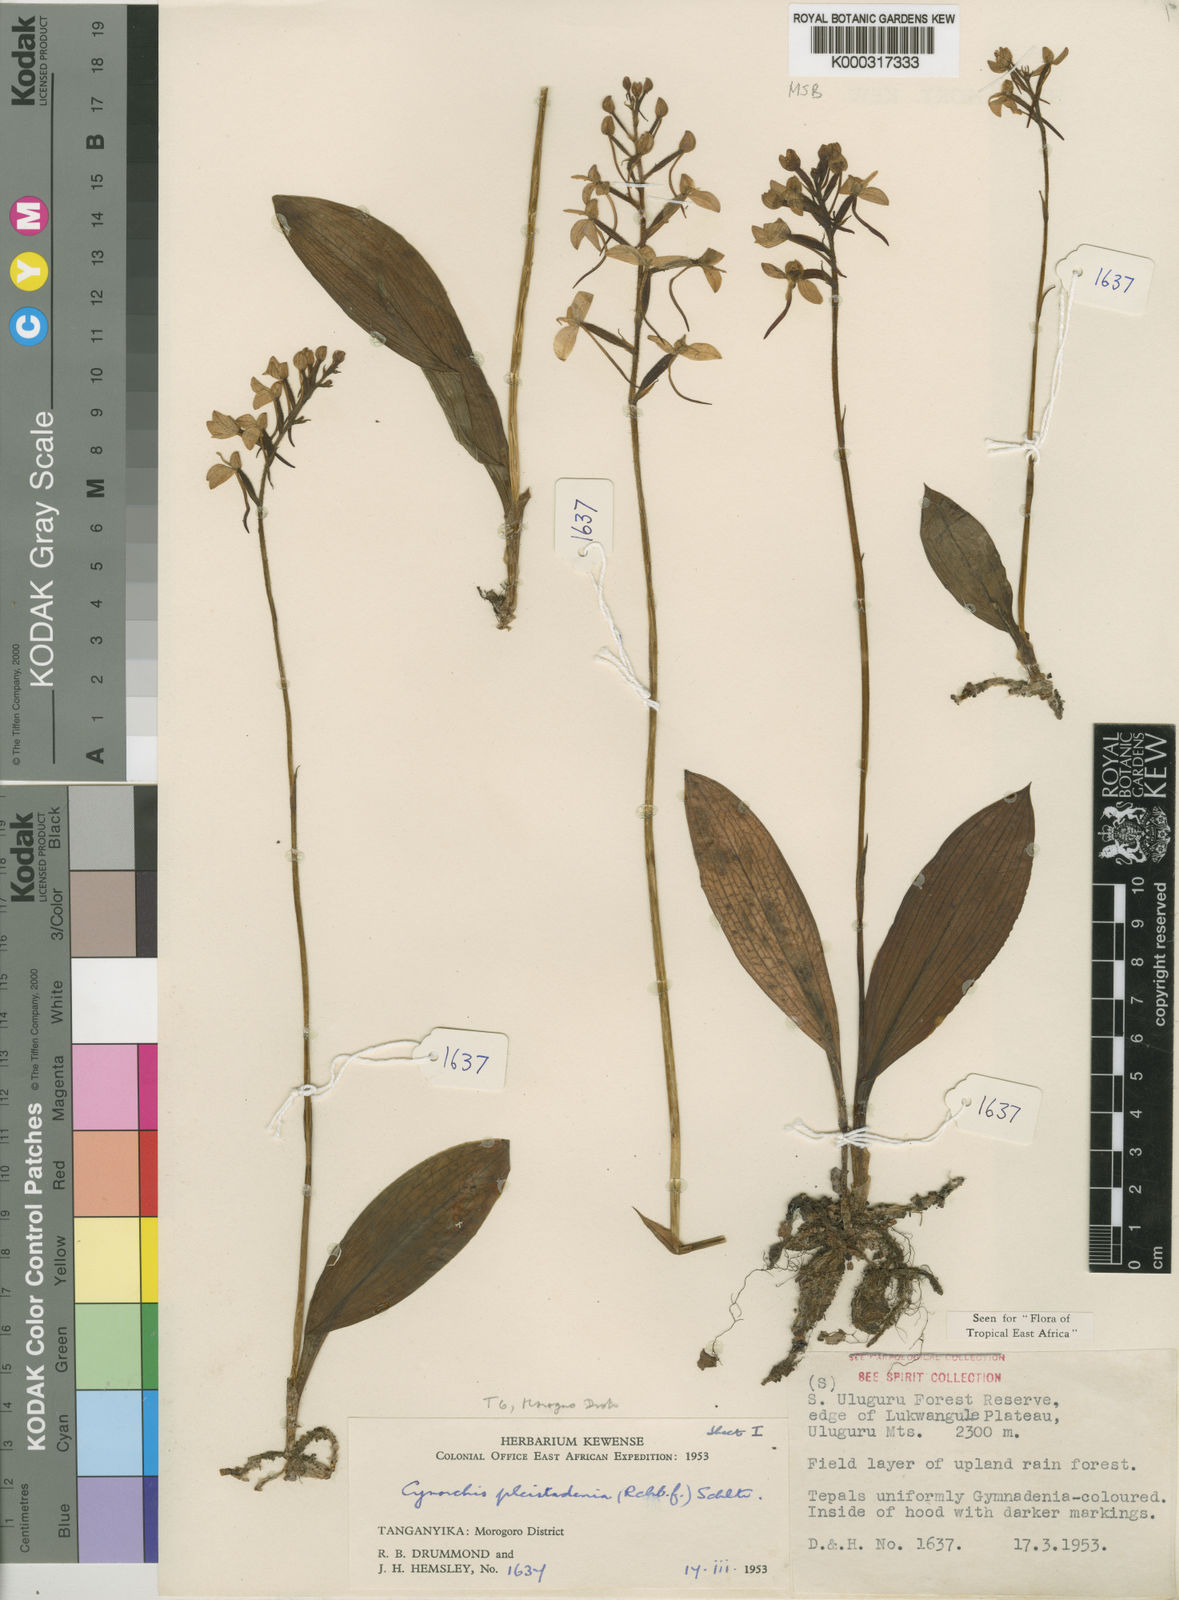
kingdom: Plantae
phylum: Tracheophyta
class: Liliopsida
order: Asparagales
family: Orchidaceae
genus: Cynorkis
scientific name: Cynorkis pleistadenia
